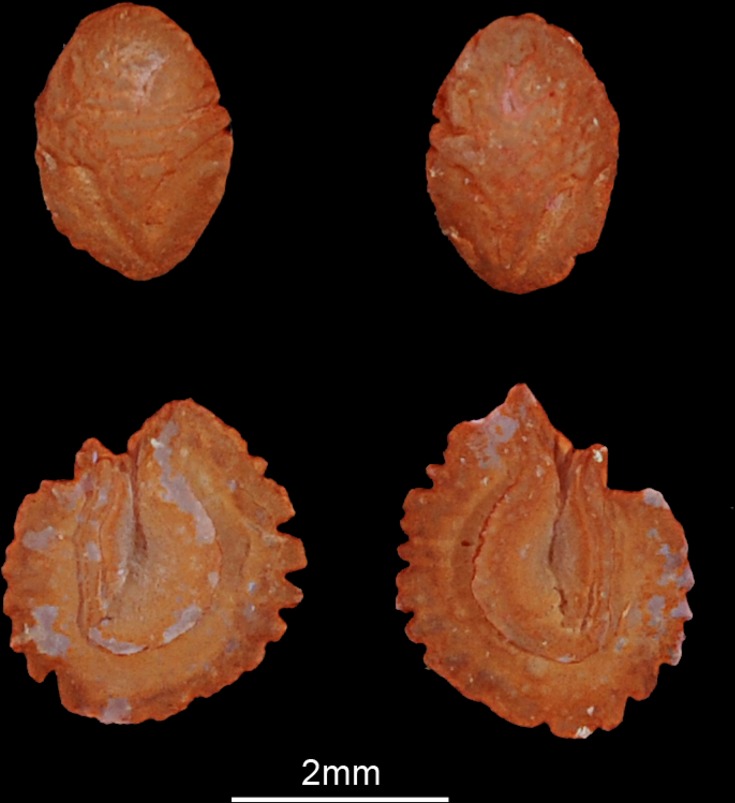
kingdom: Animalia
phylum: Chordata
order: Cypriniformes
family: Cyprinidae
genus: Alburnus
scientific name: Alburnus alburnus
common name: Bleak
